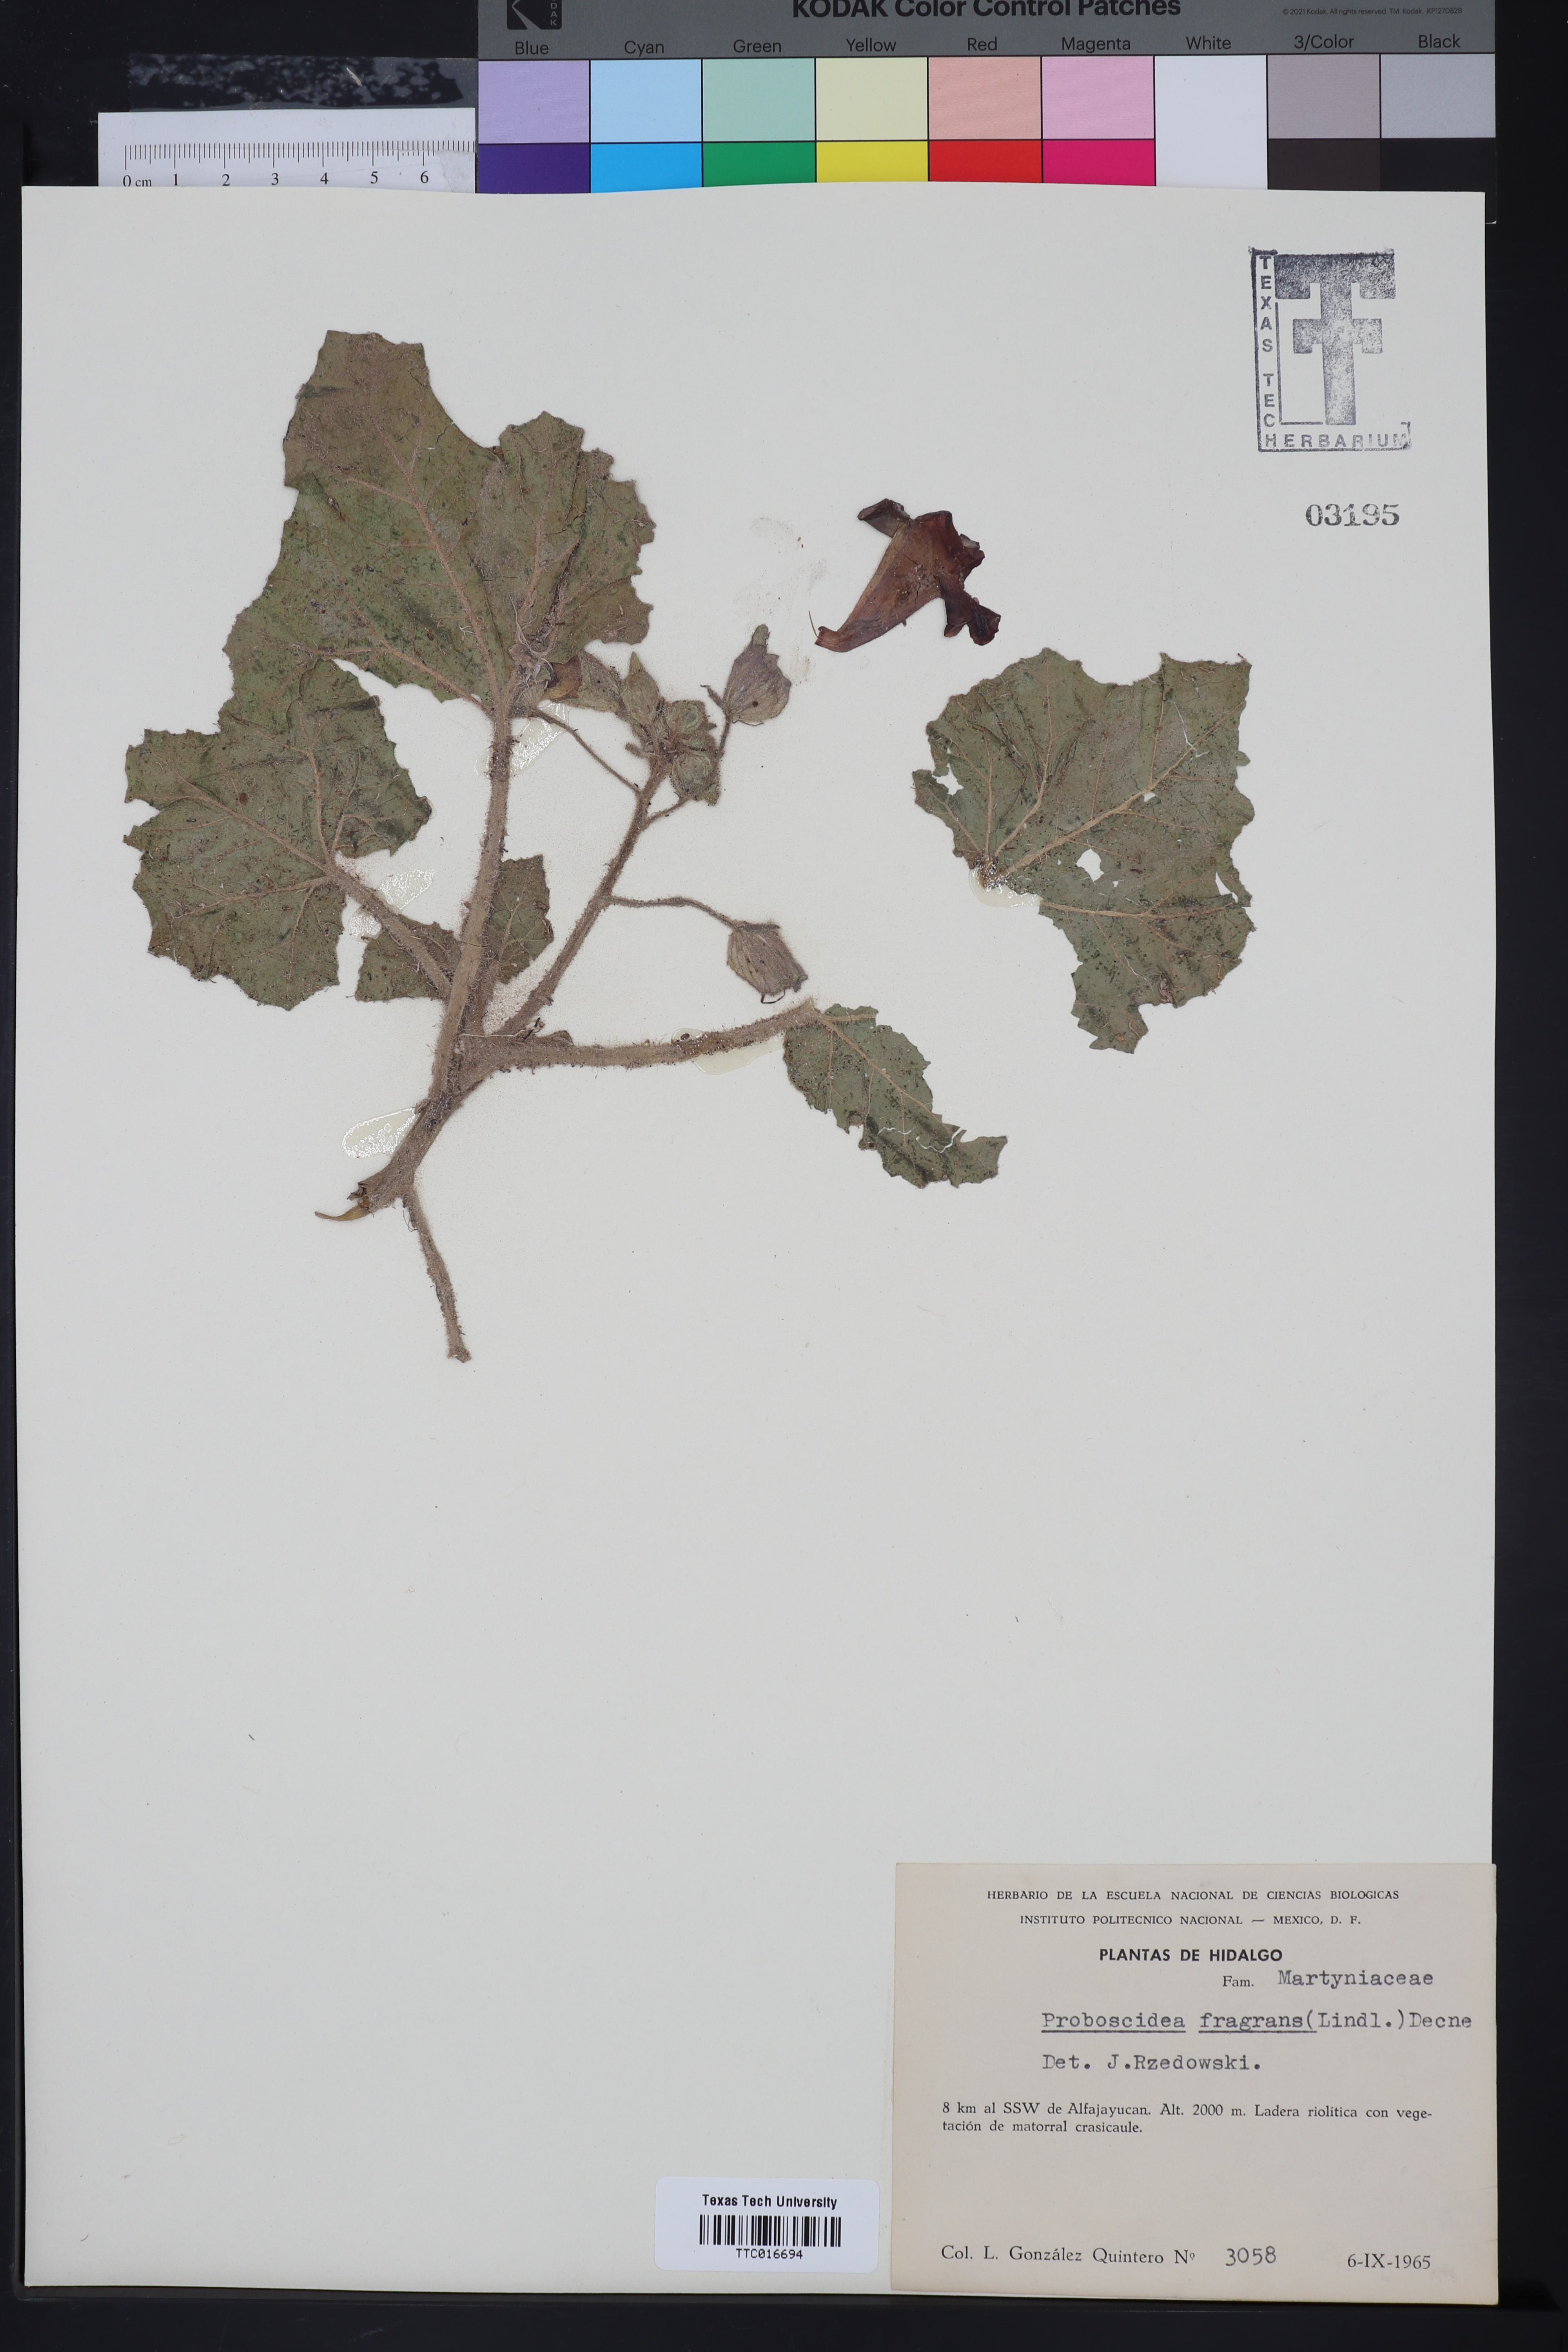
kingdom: Plantae
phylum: Tracheophyta
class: Magnoliopsida
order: Lamiales
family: Martyniaceae
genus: Proboscidea
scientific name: Proboscidea louisianica
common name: Elephant tusks
